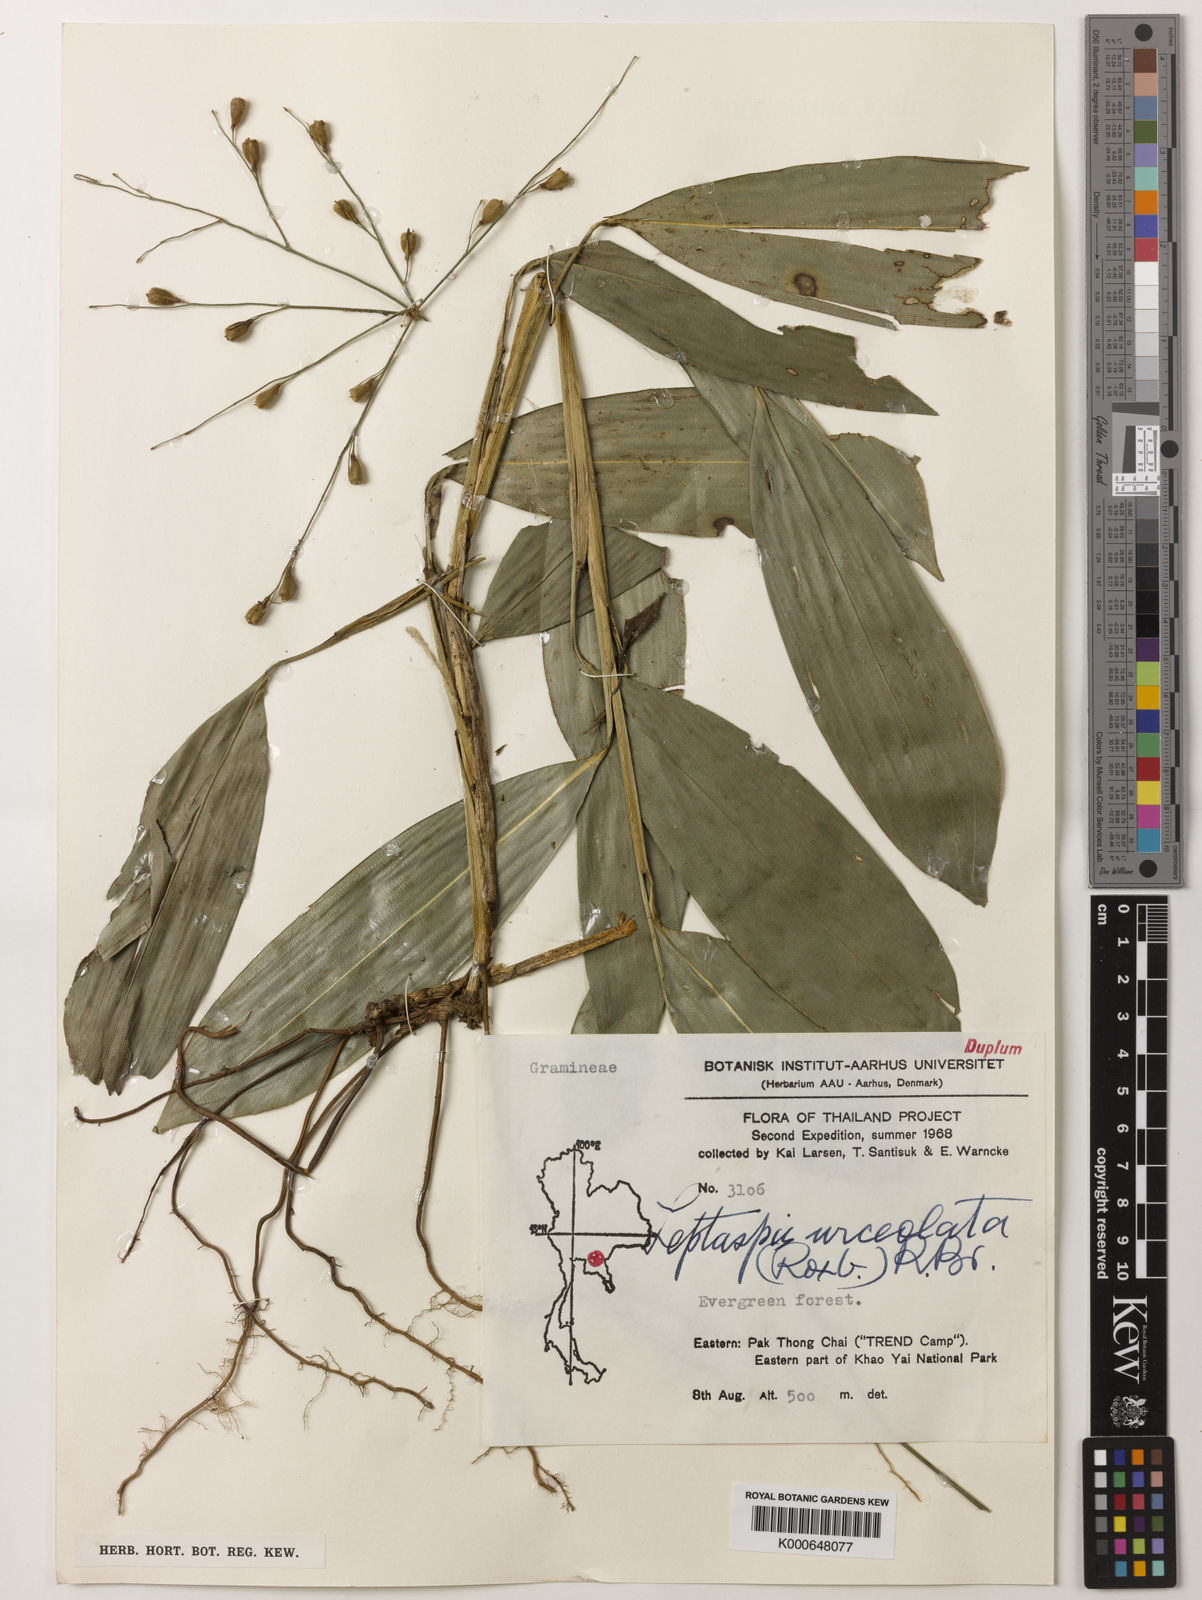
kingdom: Plantae
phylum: Tracheophyta
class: Liliopsida
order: Poales
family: Poaceae
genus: Scrotochloa
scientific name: Scrotochloa urceolata
